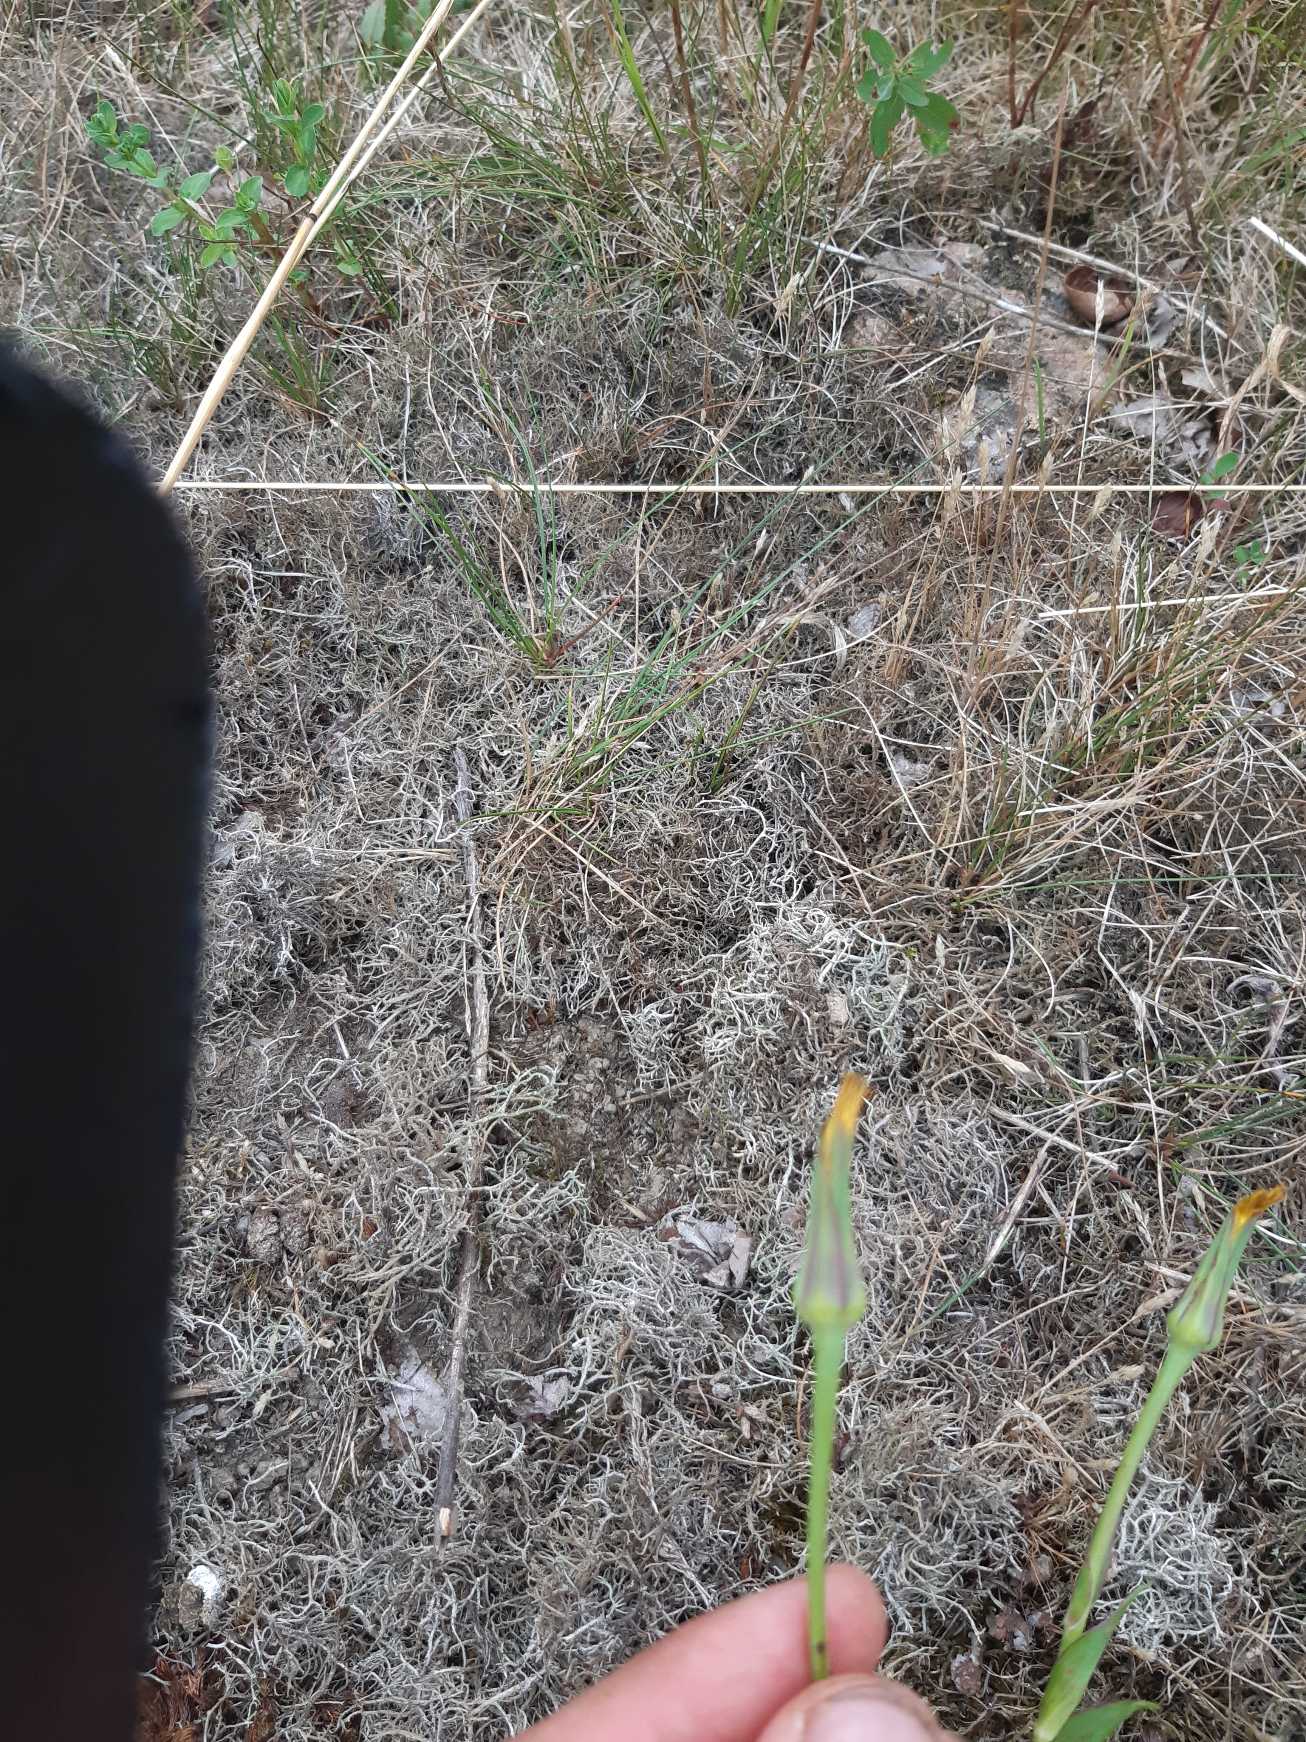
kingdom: Plantae
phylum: Tracheophyta
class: Magnoliopsida
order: Asterales
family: Asteraceae
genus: Tragopogon
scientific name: Tragopogon pratensis
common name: Gedeskæg
